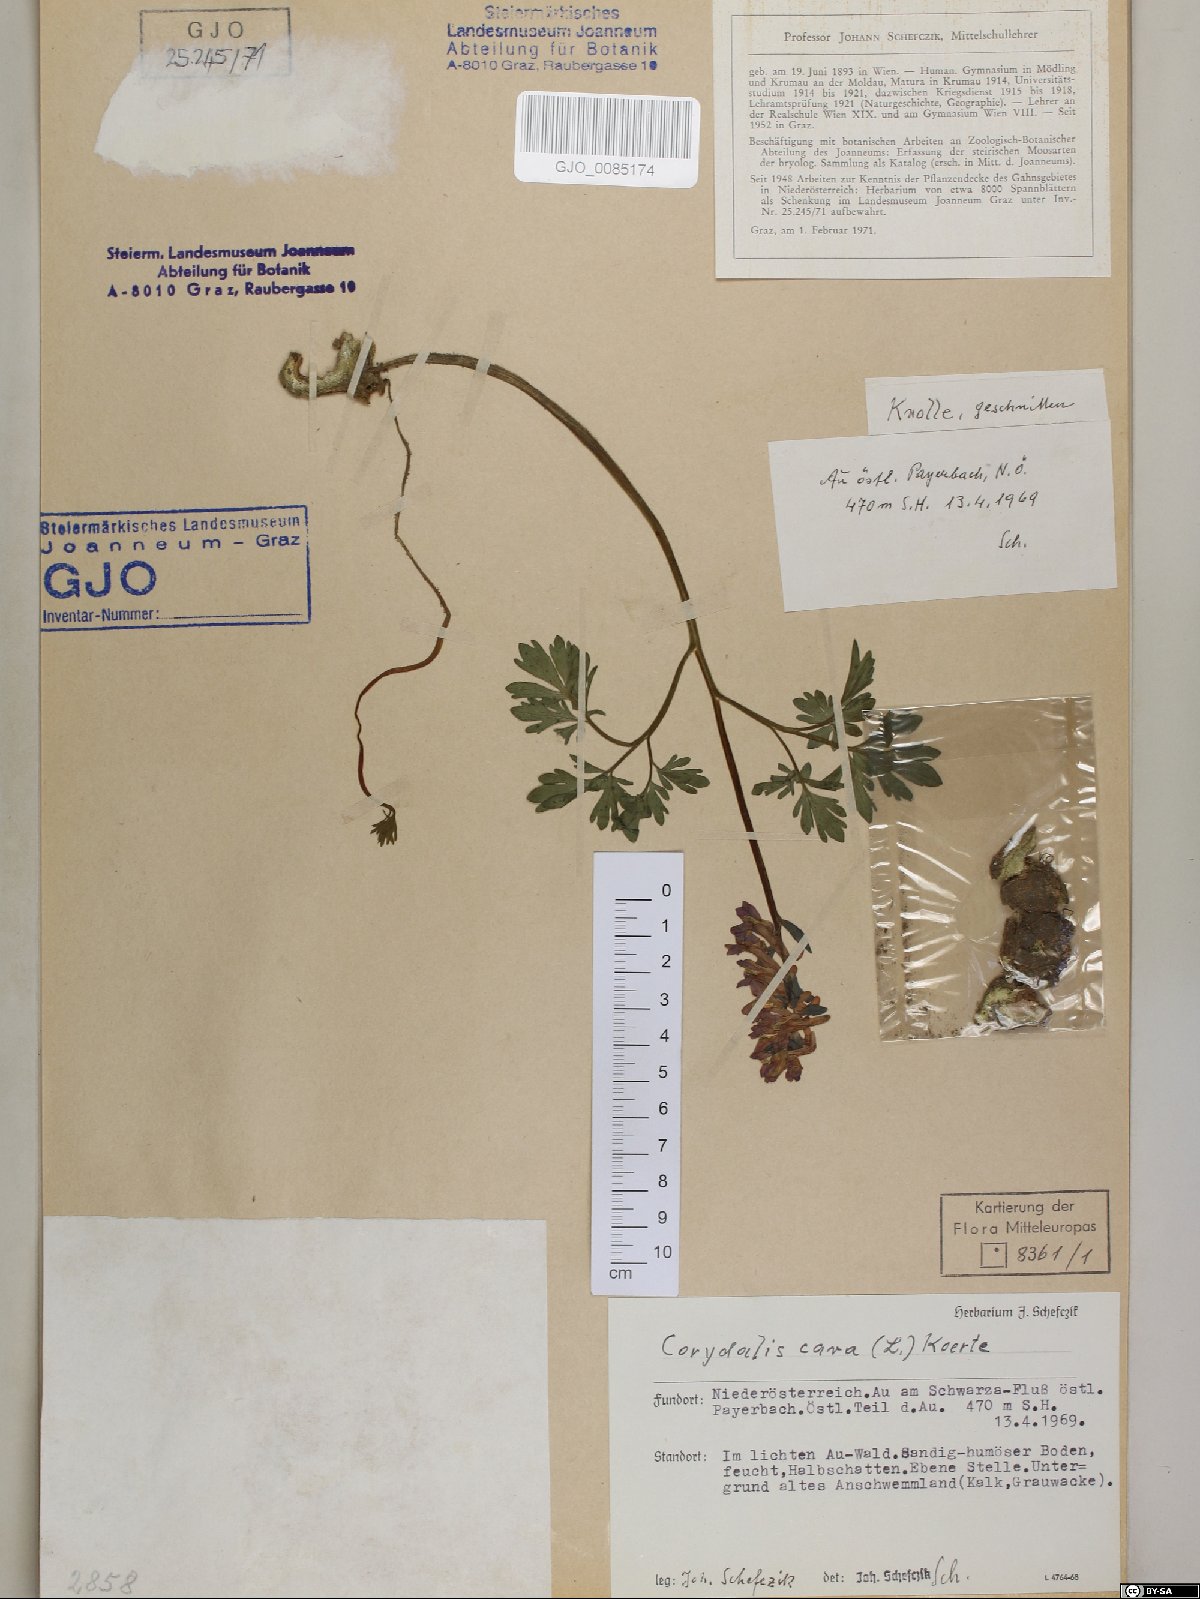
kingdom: Plantae
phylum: Tracheophyta
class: Magnoliopsida
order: Ranunculales
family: Papaveraceae
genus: Corydalis
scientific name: Corydalis cava
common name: Hollowroot
